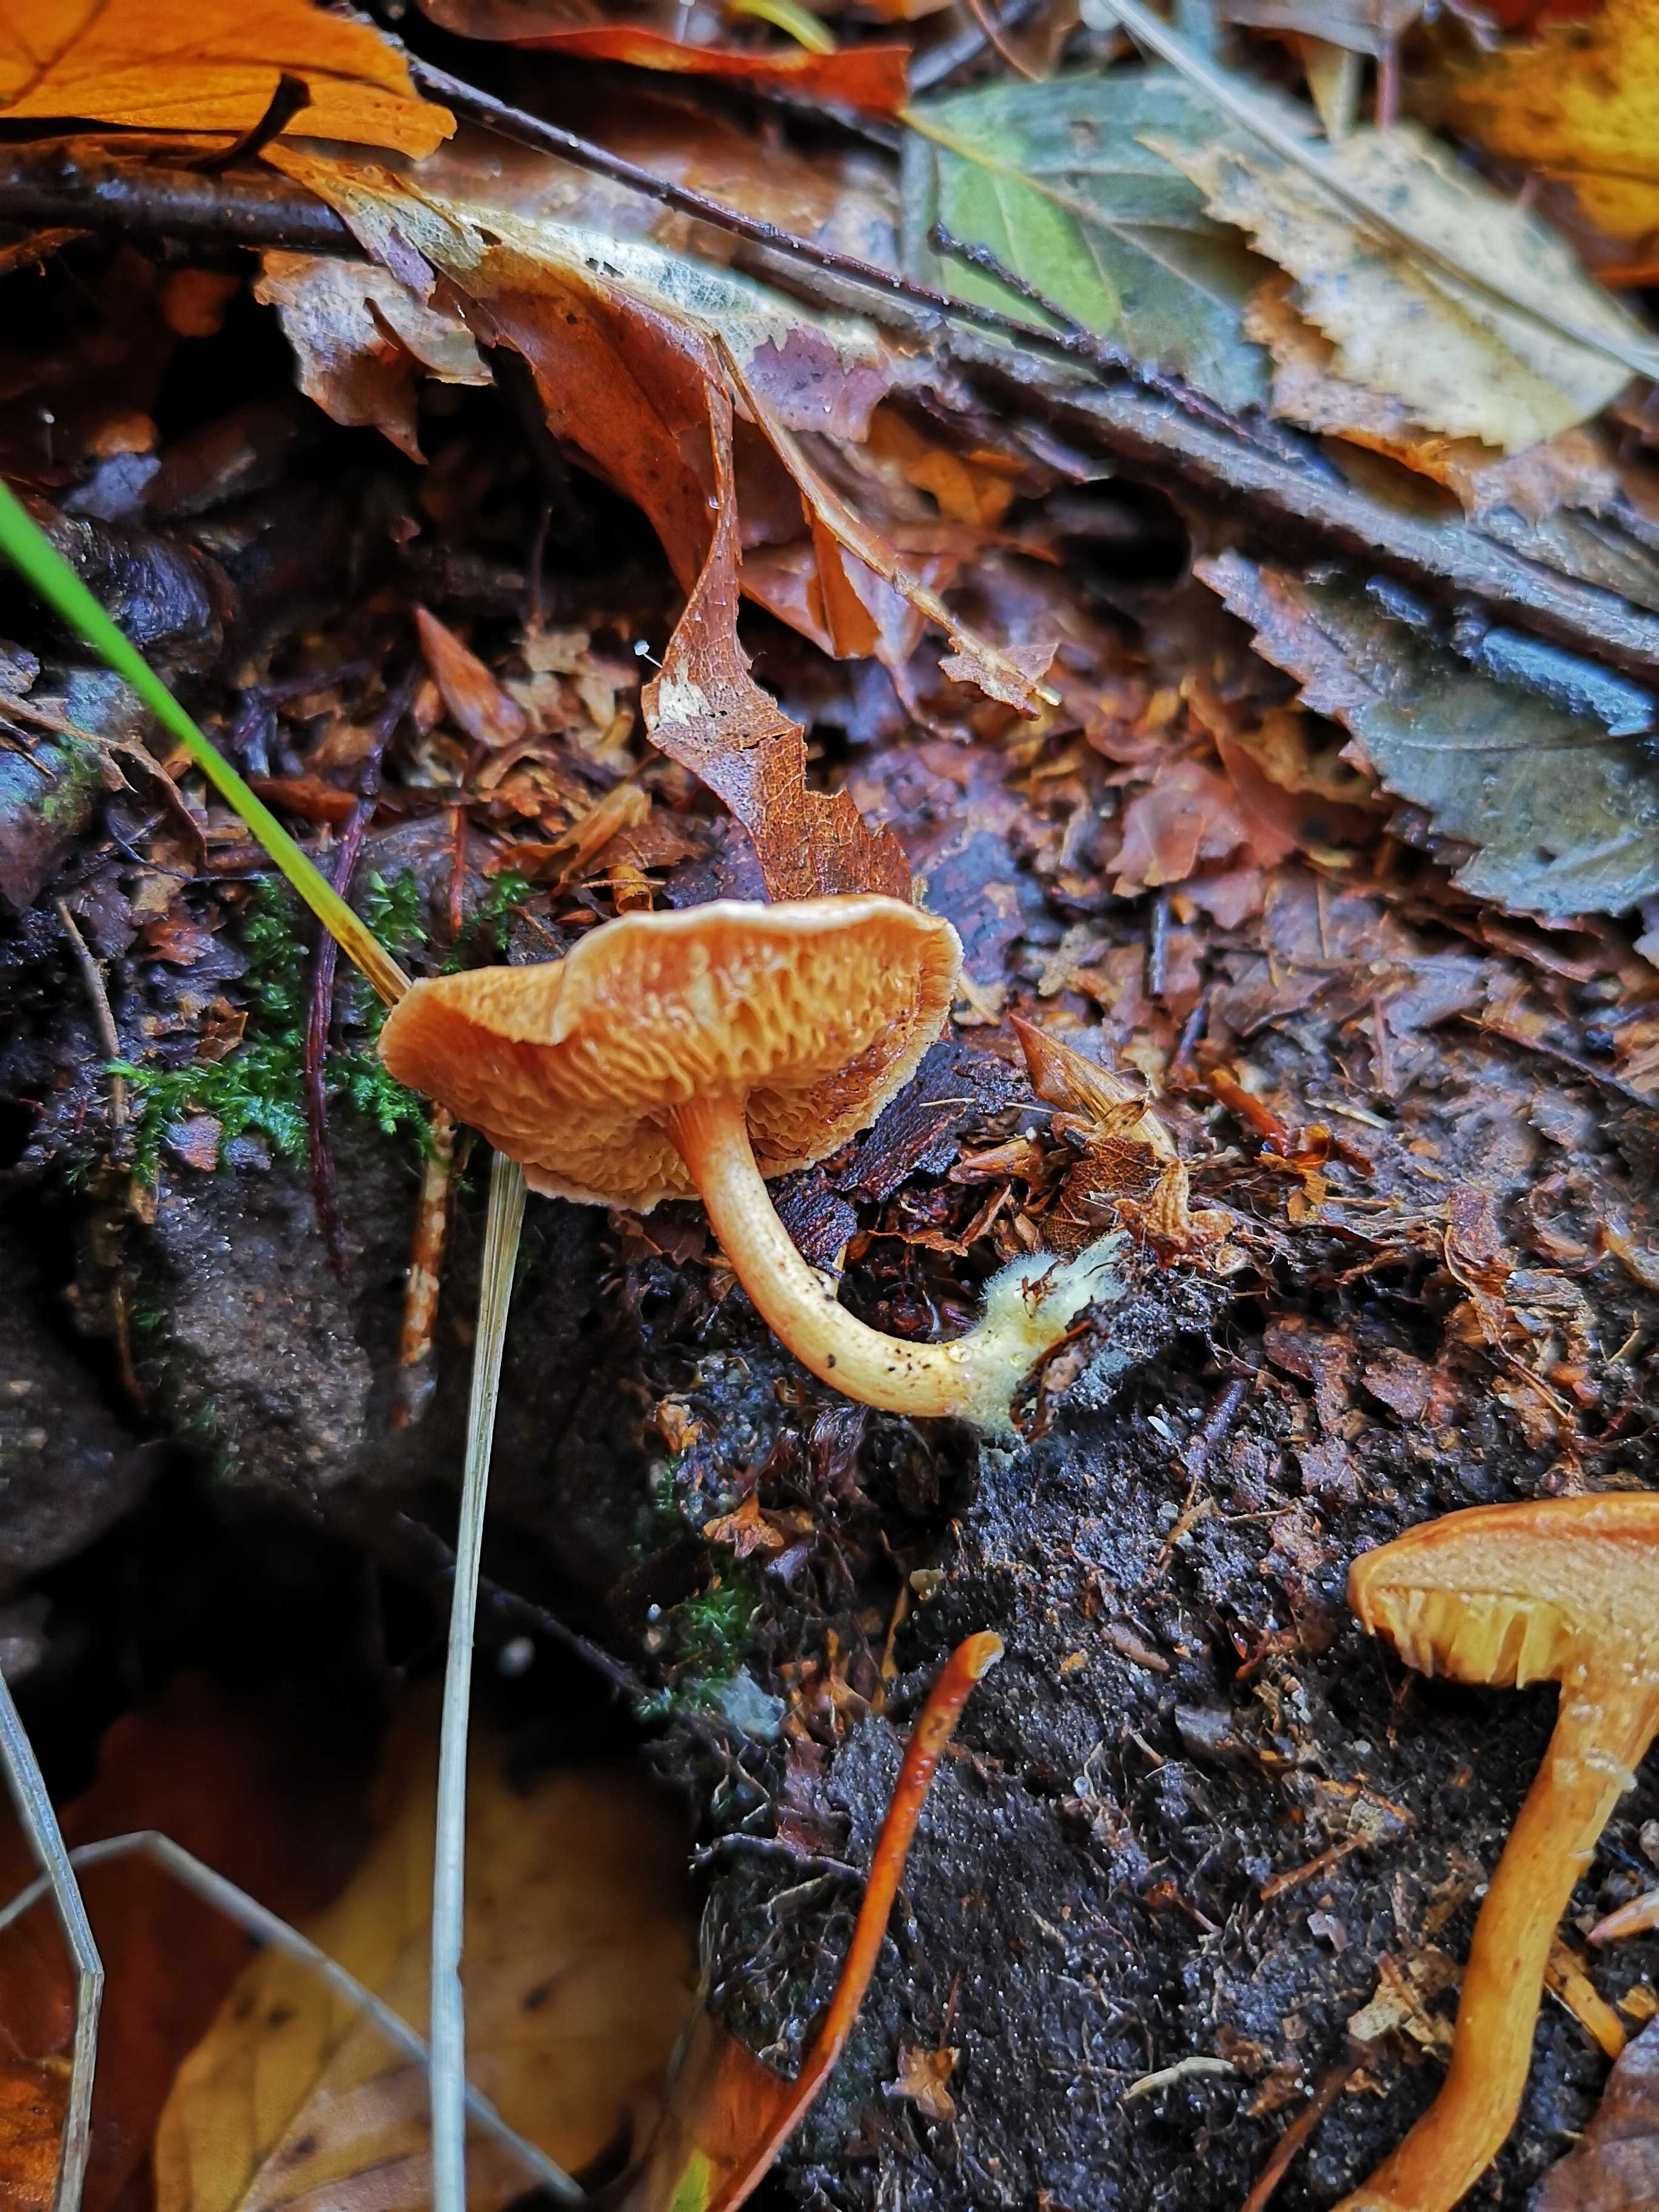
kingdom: Fungi
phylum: Basidiomycota
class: Agaricomycetes
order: Boletales
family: Boletaceae
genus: Chalciporus
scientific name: Chalciporus piperatus
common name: peberrørhat
